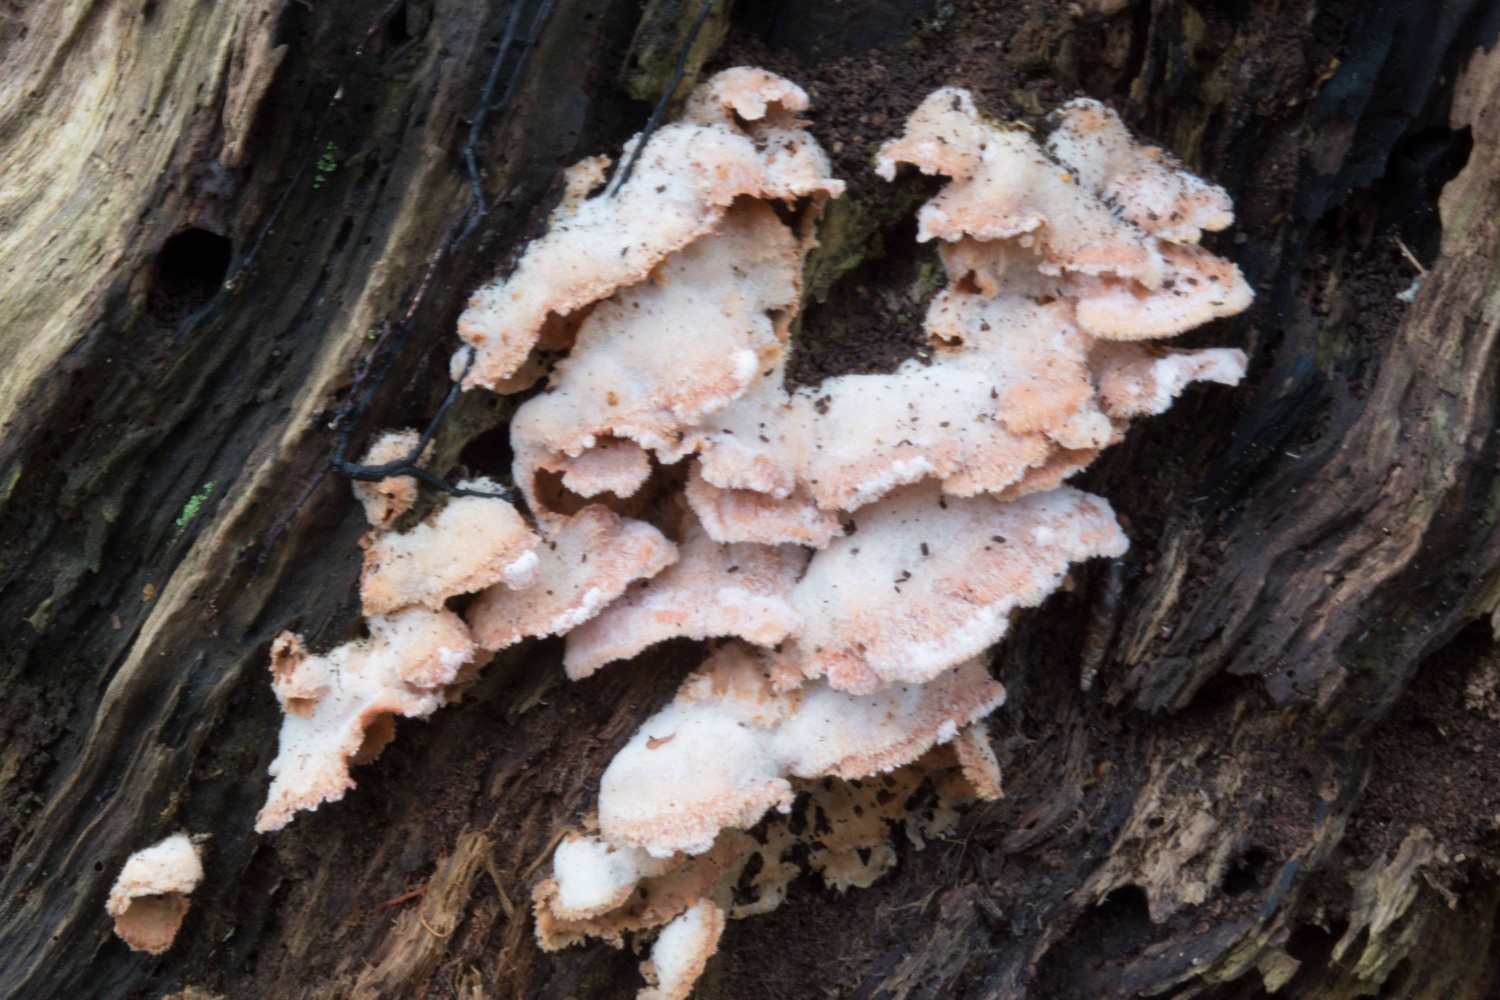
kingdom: Fungi
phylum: Basidiomycota
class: Agaricomycetes
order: Polyporales
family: Meruliaceae
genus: Phlebia
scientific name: Phlebia tremellosa
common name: bævrende åresvamp
